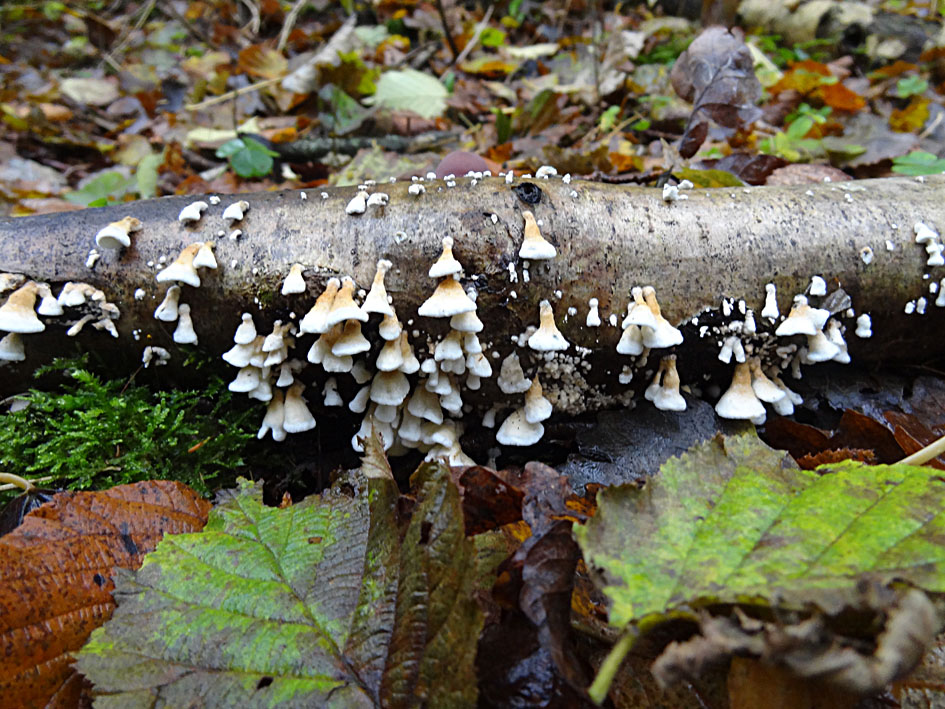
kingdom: Fungi
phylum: Basidiomycota
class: Agaricomycetes
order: Amylocorticiales
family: Amylocorticiaceae
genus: Plicaturopsis
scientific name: Plicaturopsis crispa
